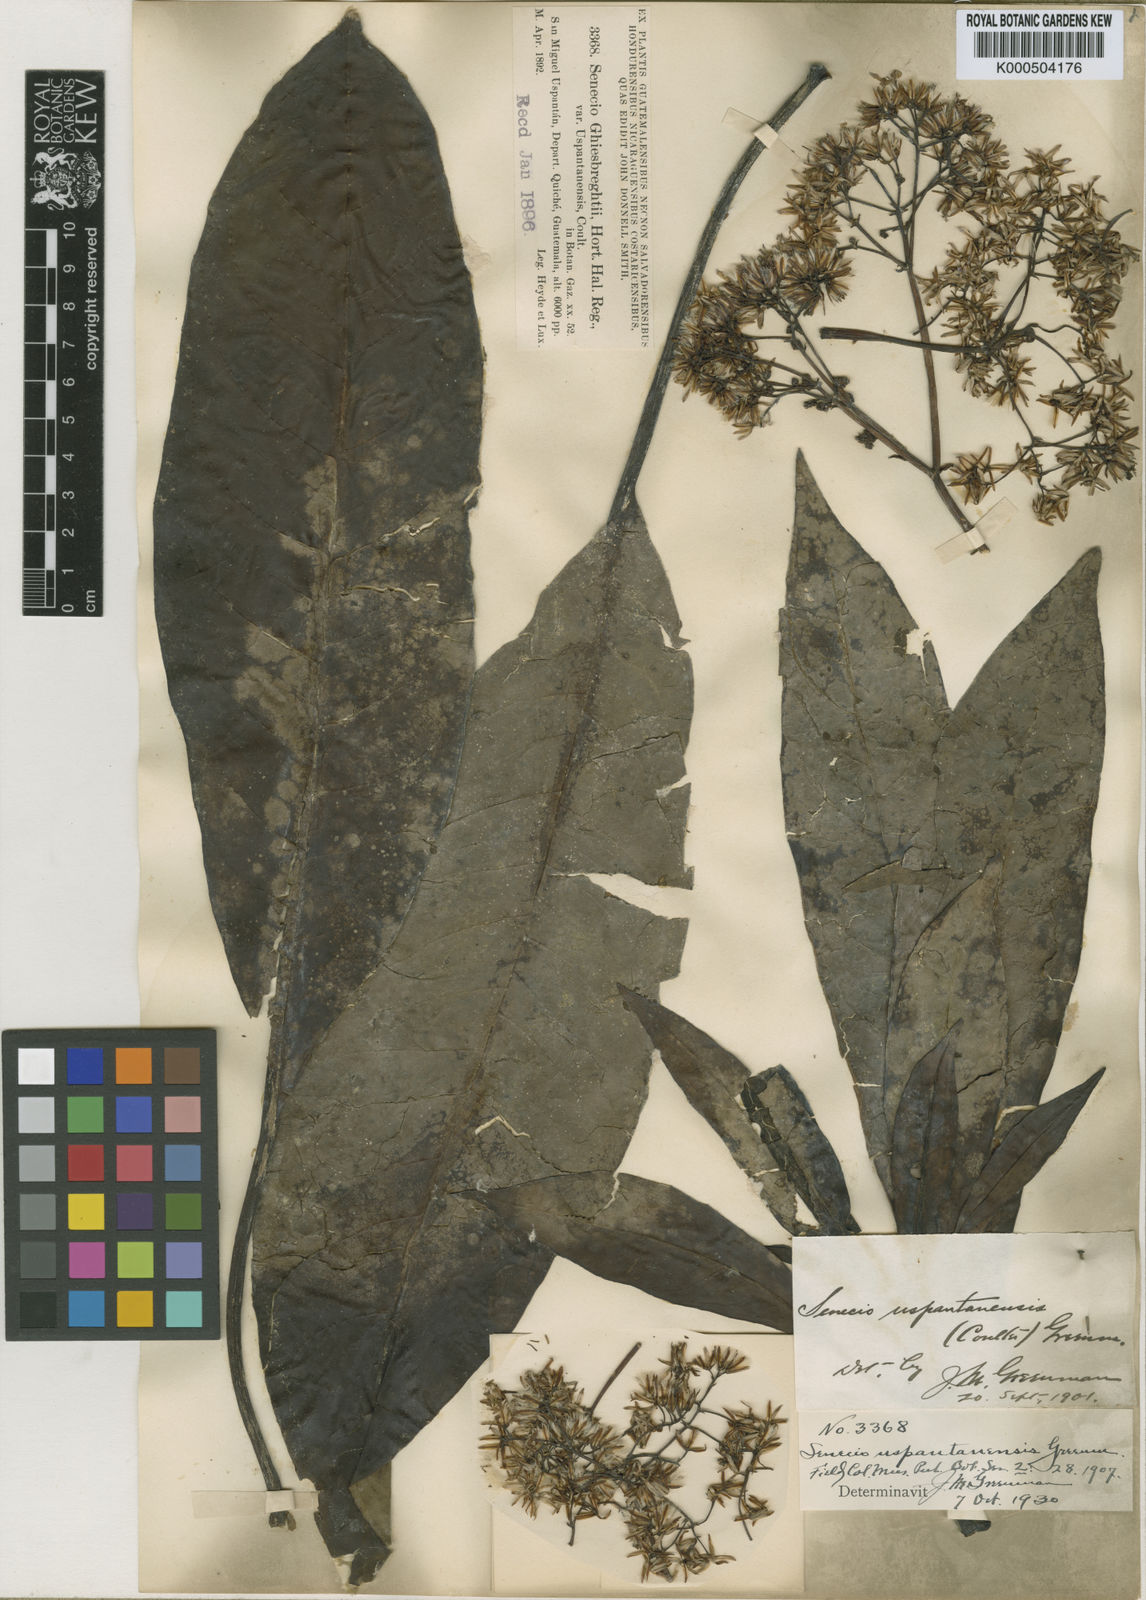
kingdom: Plantae
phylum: Tracheophyta
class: Magnoliopsida
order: Asterales
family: Asteraceae
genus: Telanthophora
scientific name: Telanthophora uspantanensis
